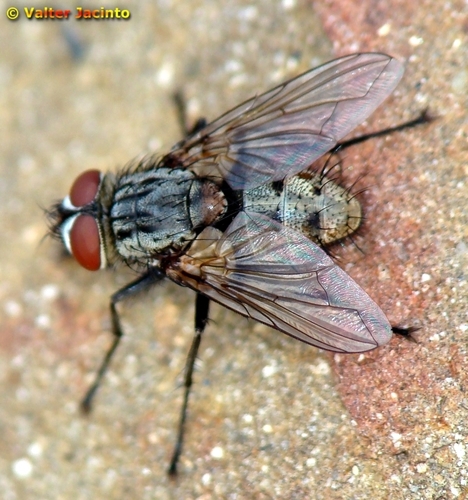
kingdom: Animalia
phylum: Arthropoda
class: Insecta
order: Diptera
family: Tachinidae
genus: Stomina
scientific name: Stomina
